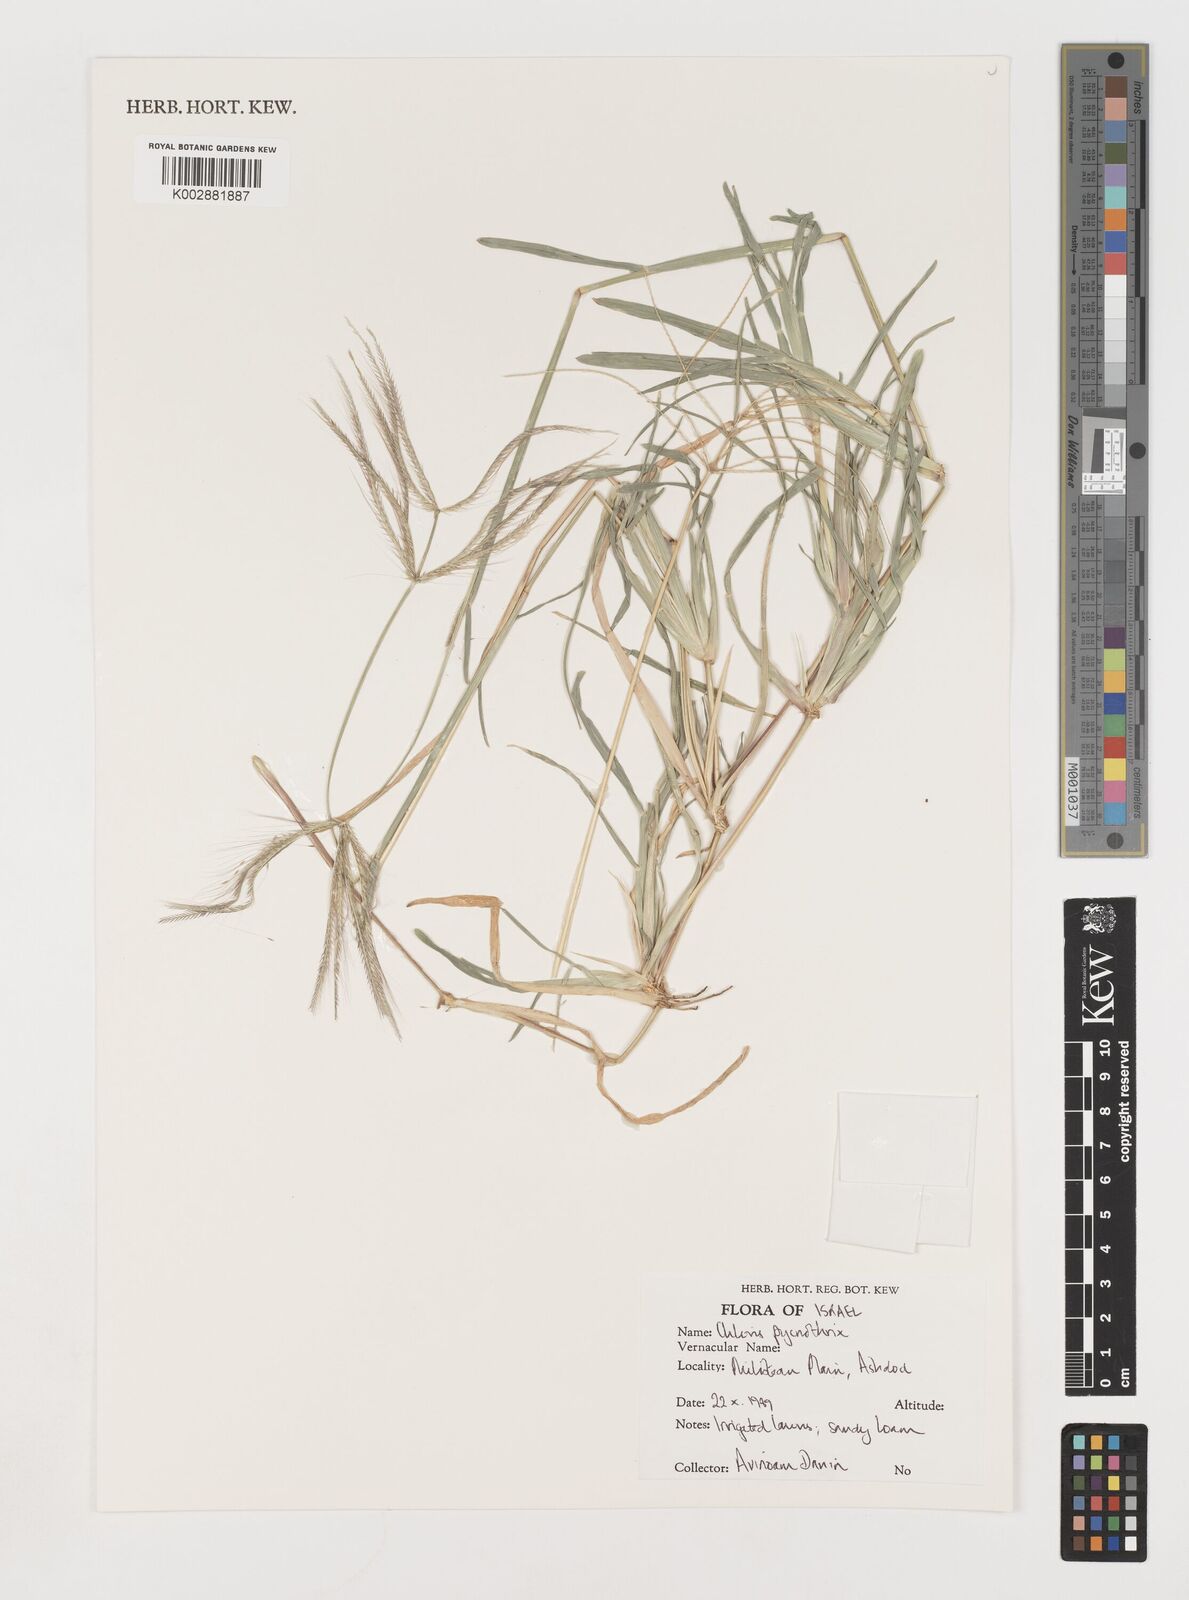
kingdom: Plantae
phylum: Tracheophyta
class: Liliopsida
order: Poales
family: Poaceae
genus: Chloris
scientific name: Chloris pycnothrix
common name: Spiderweb chloris
